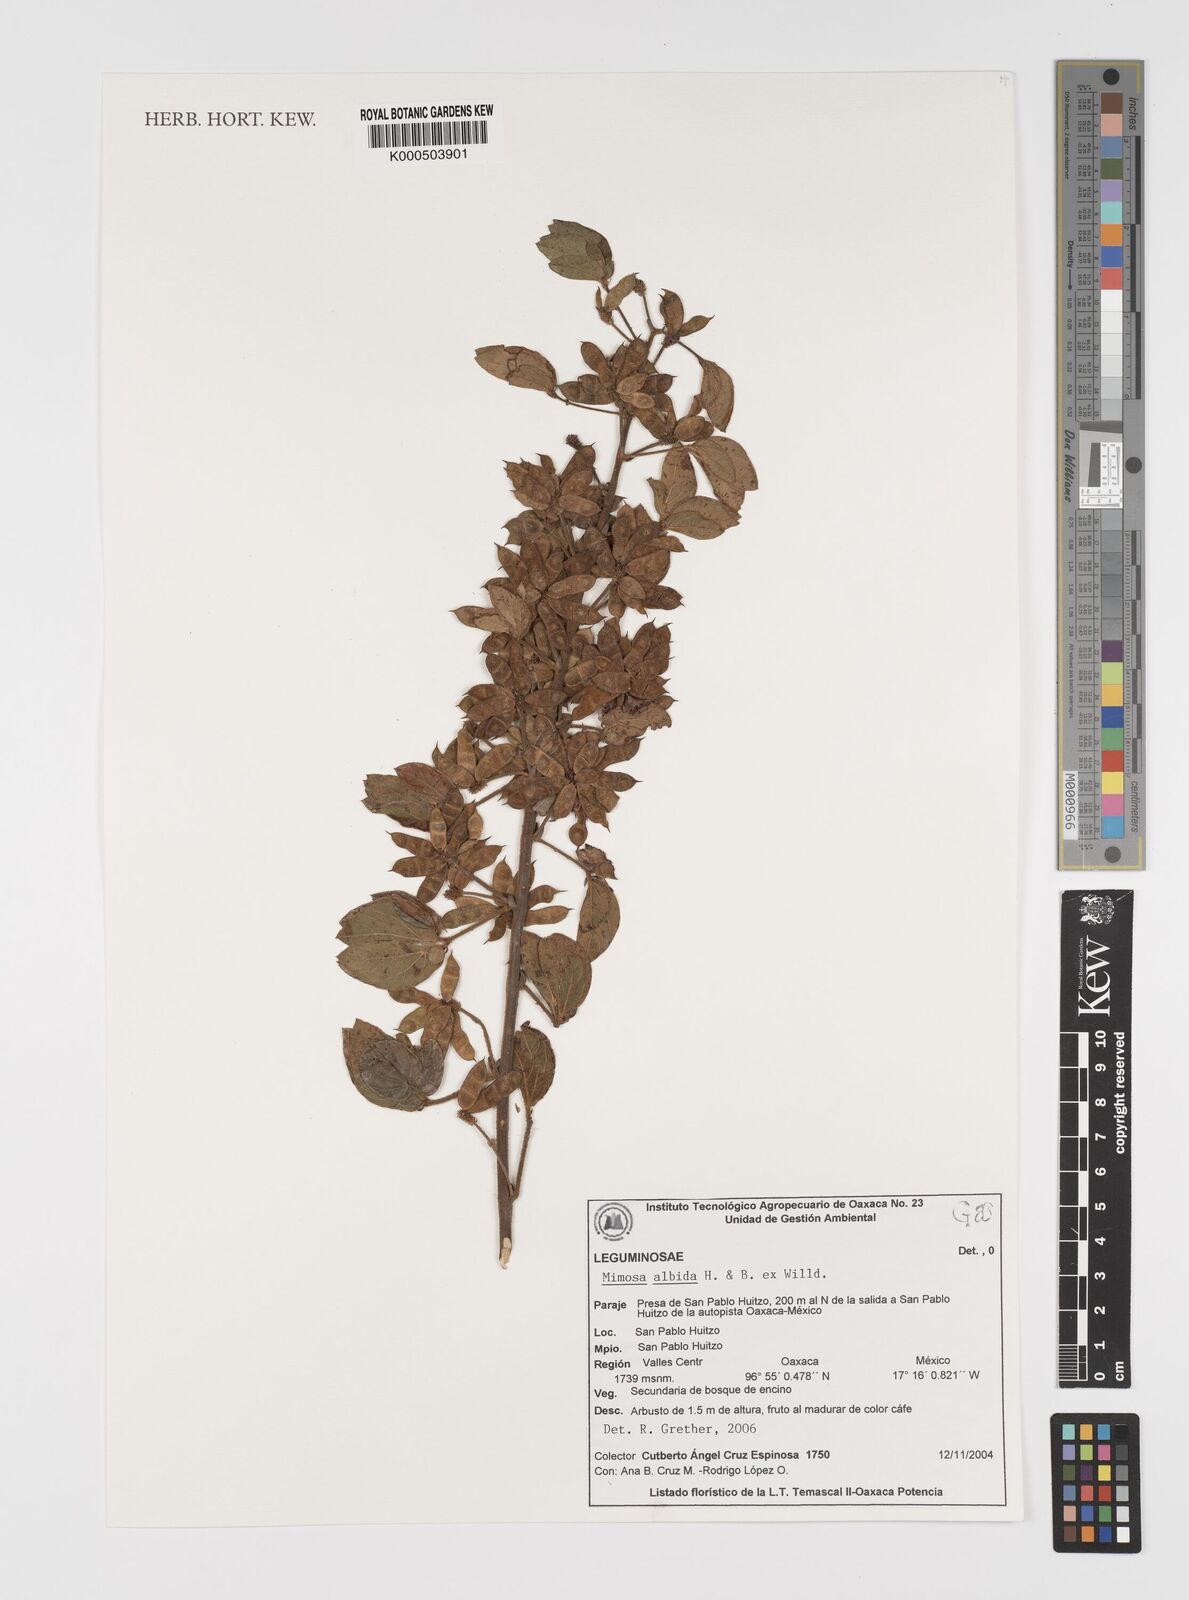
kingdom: Plantae
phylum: Tracheophyta
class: Magnoliopsida
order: Fabales
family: Fabaceae
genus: Mimosa
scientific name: Mimosa albida
